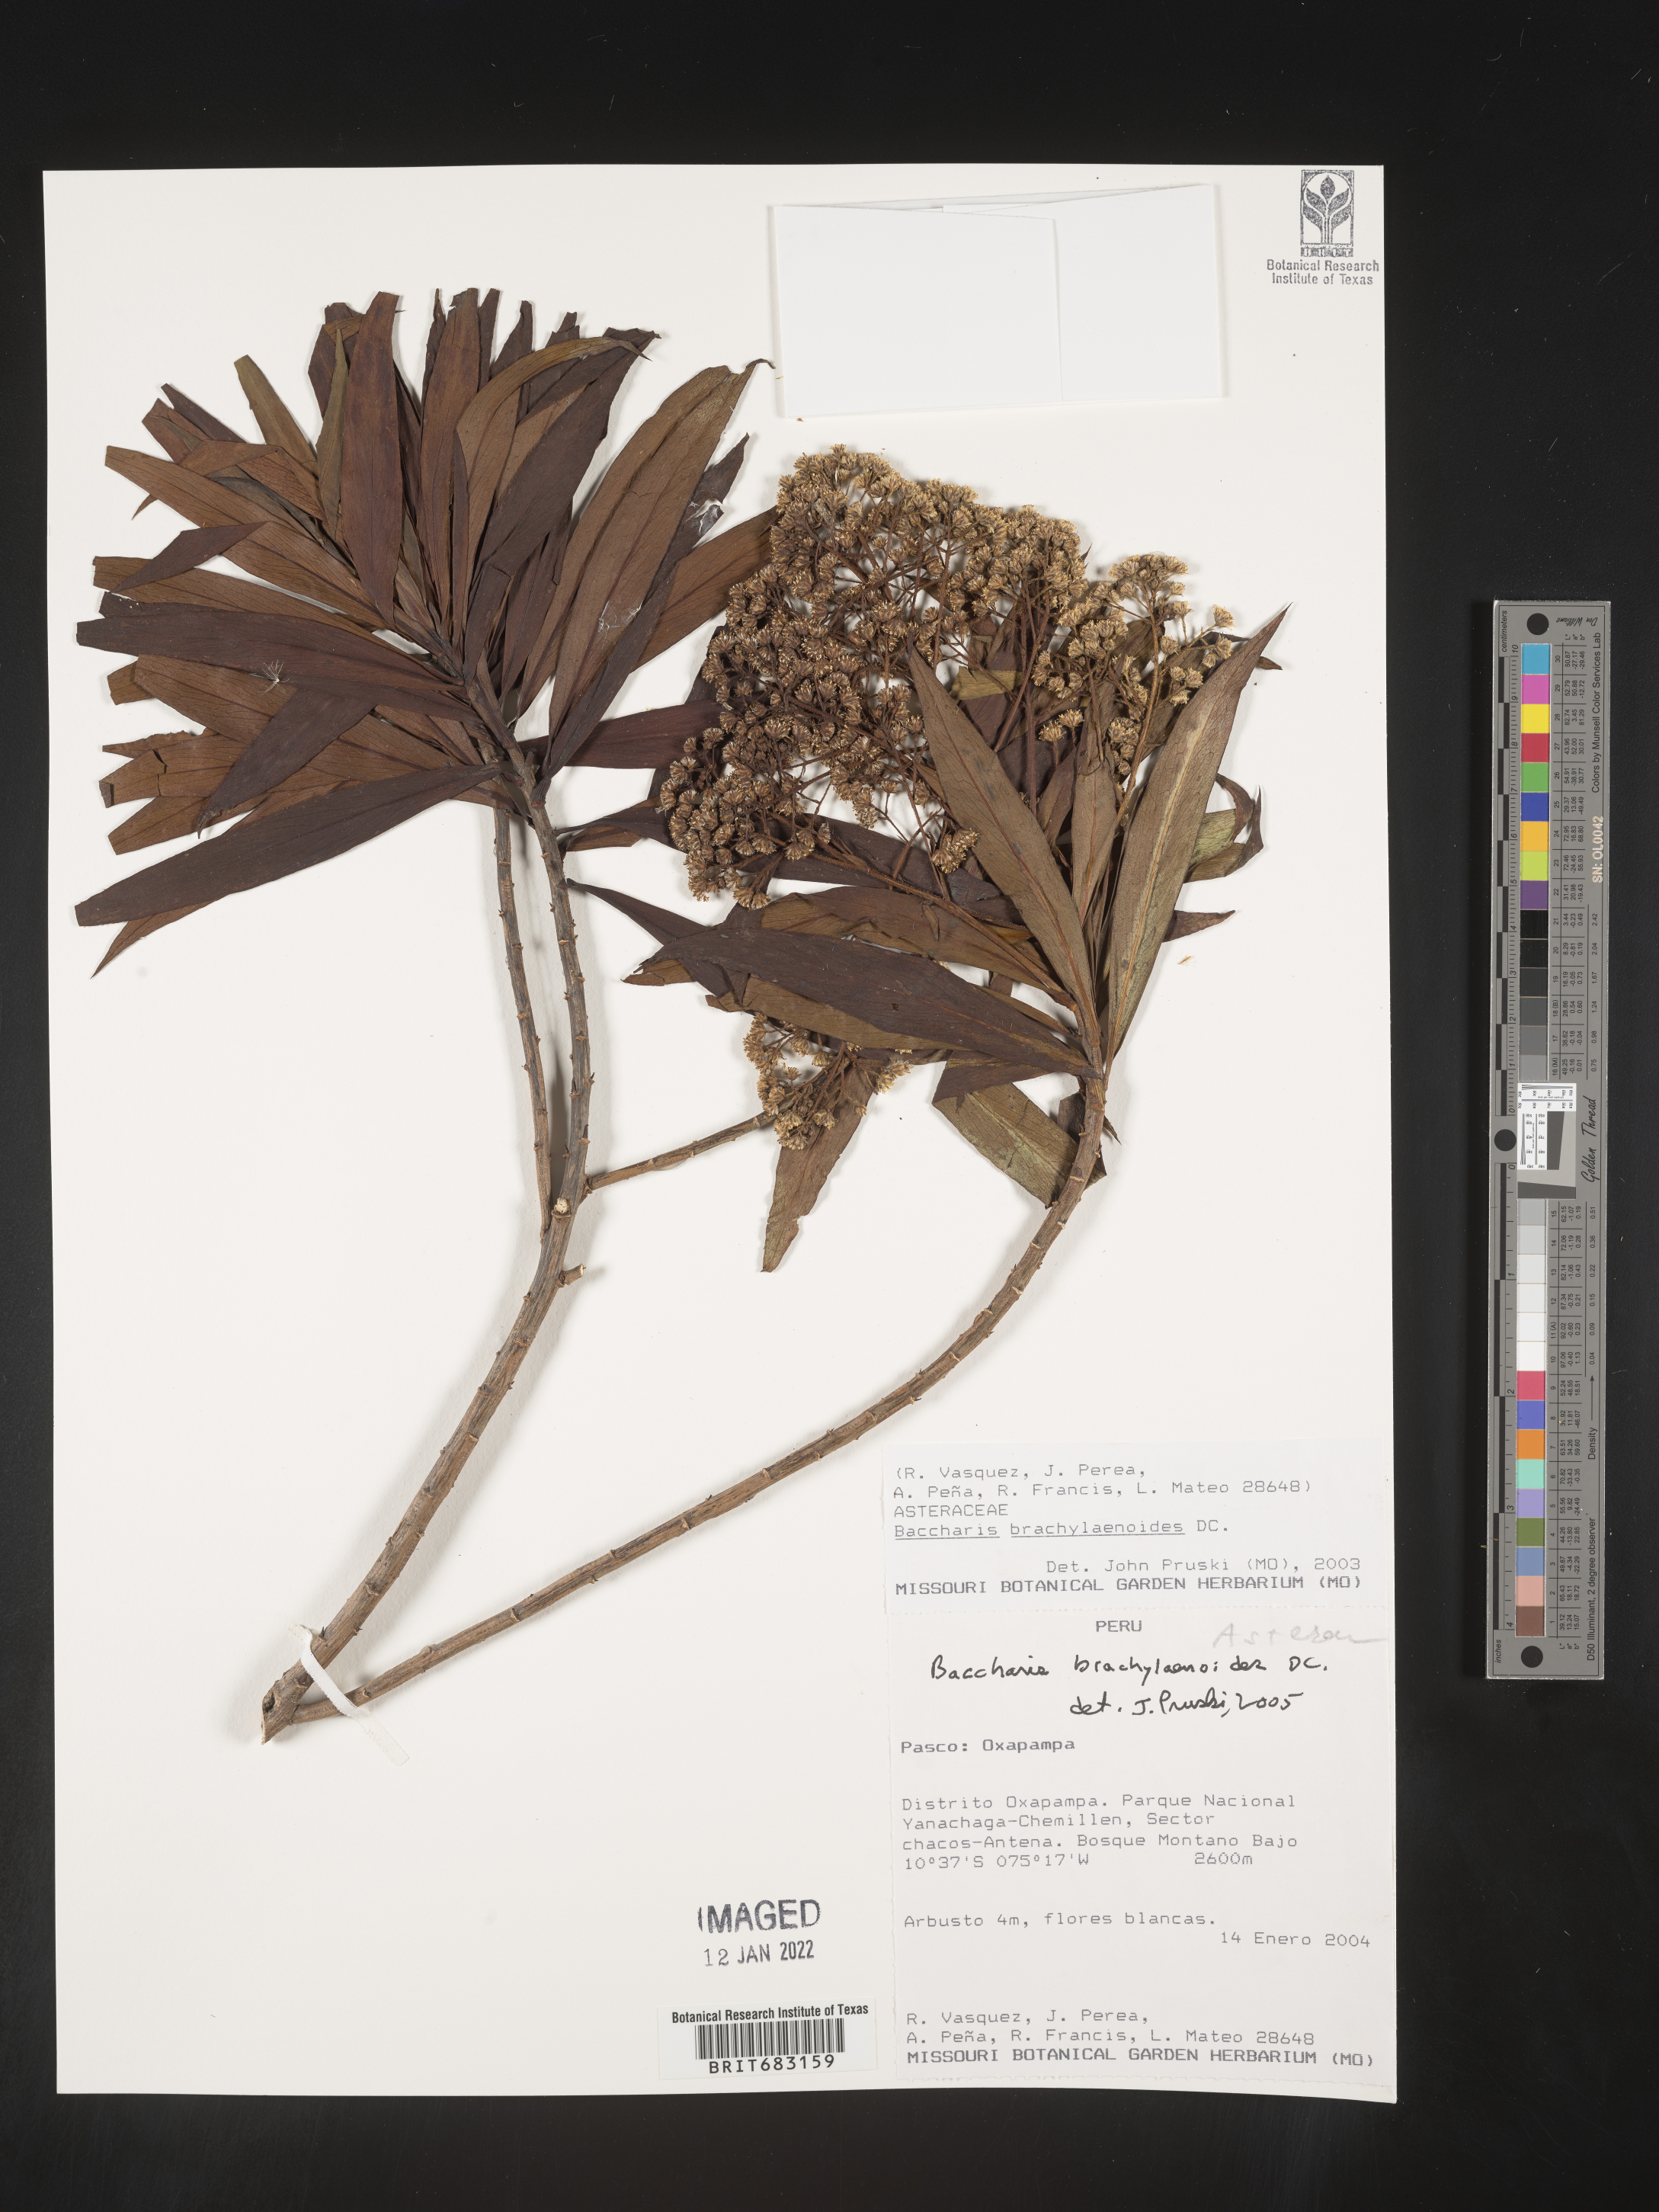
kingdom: Plantae
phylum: Tracheophyta
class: Magnoliopsida
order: Asterales
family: Asteraceae
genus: Baccharis
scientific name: Baccharis
